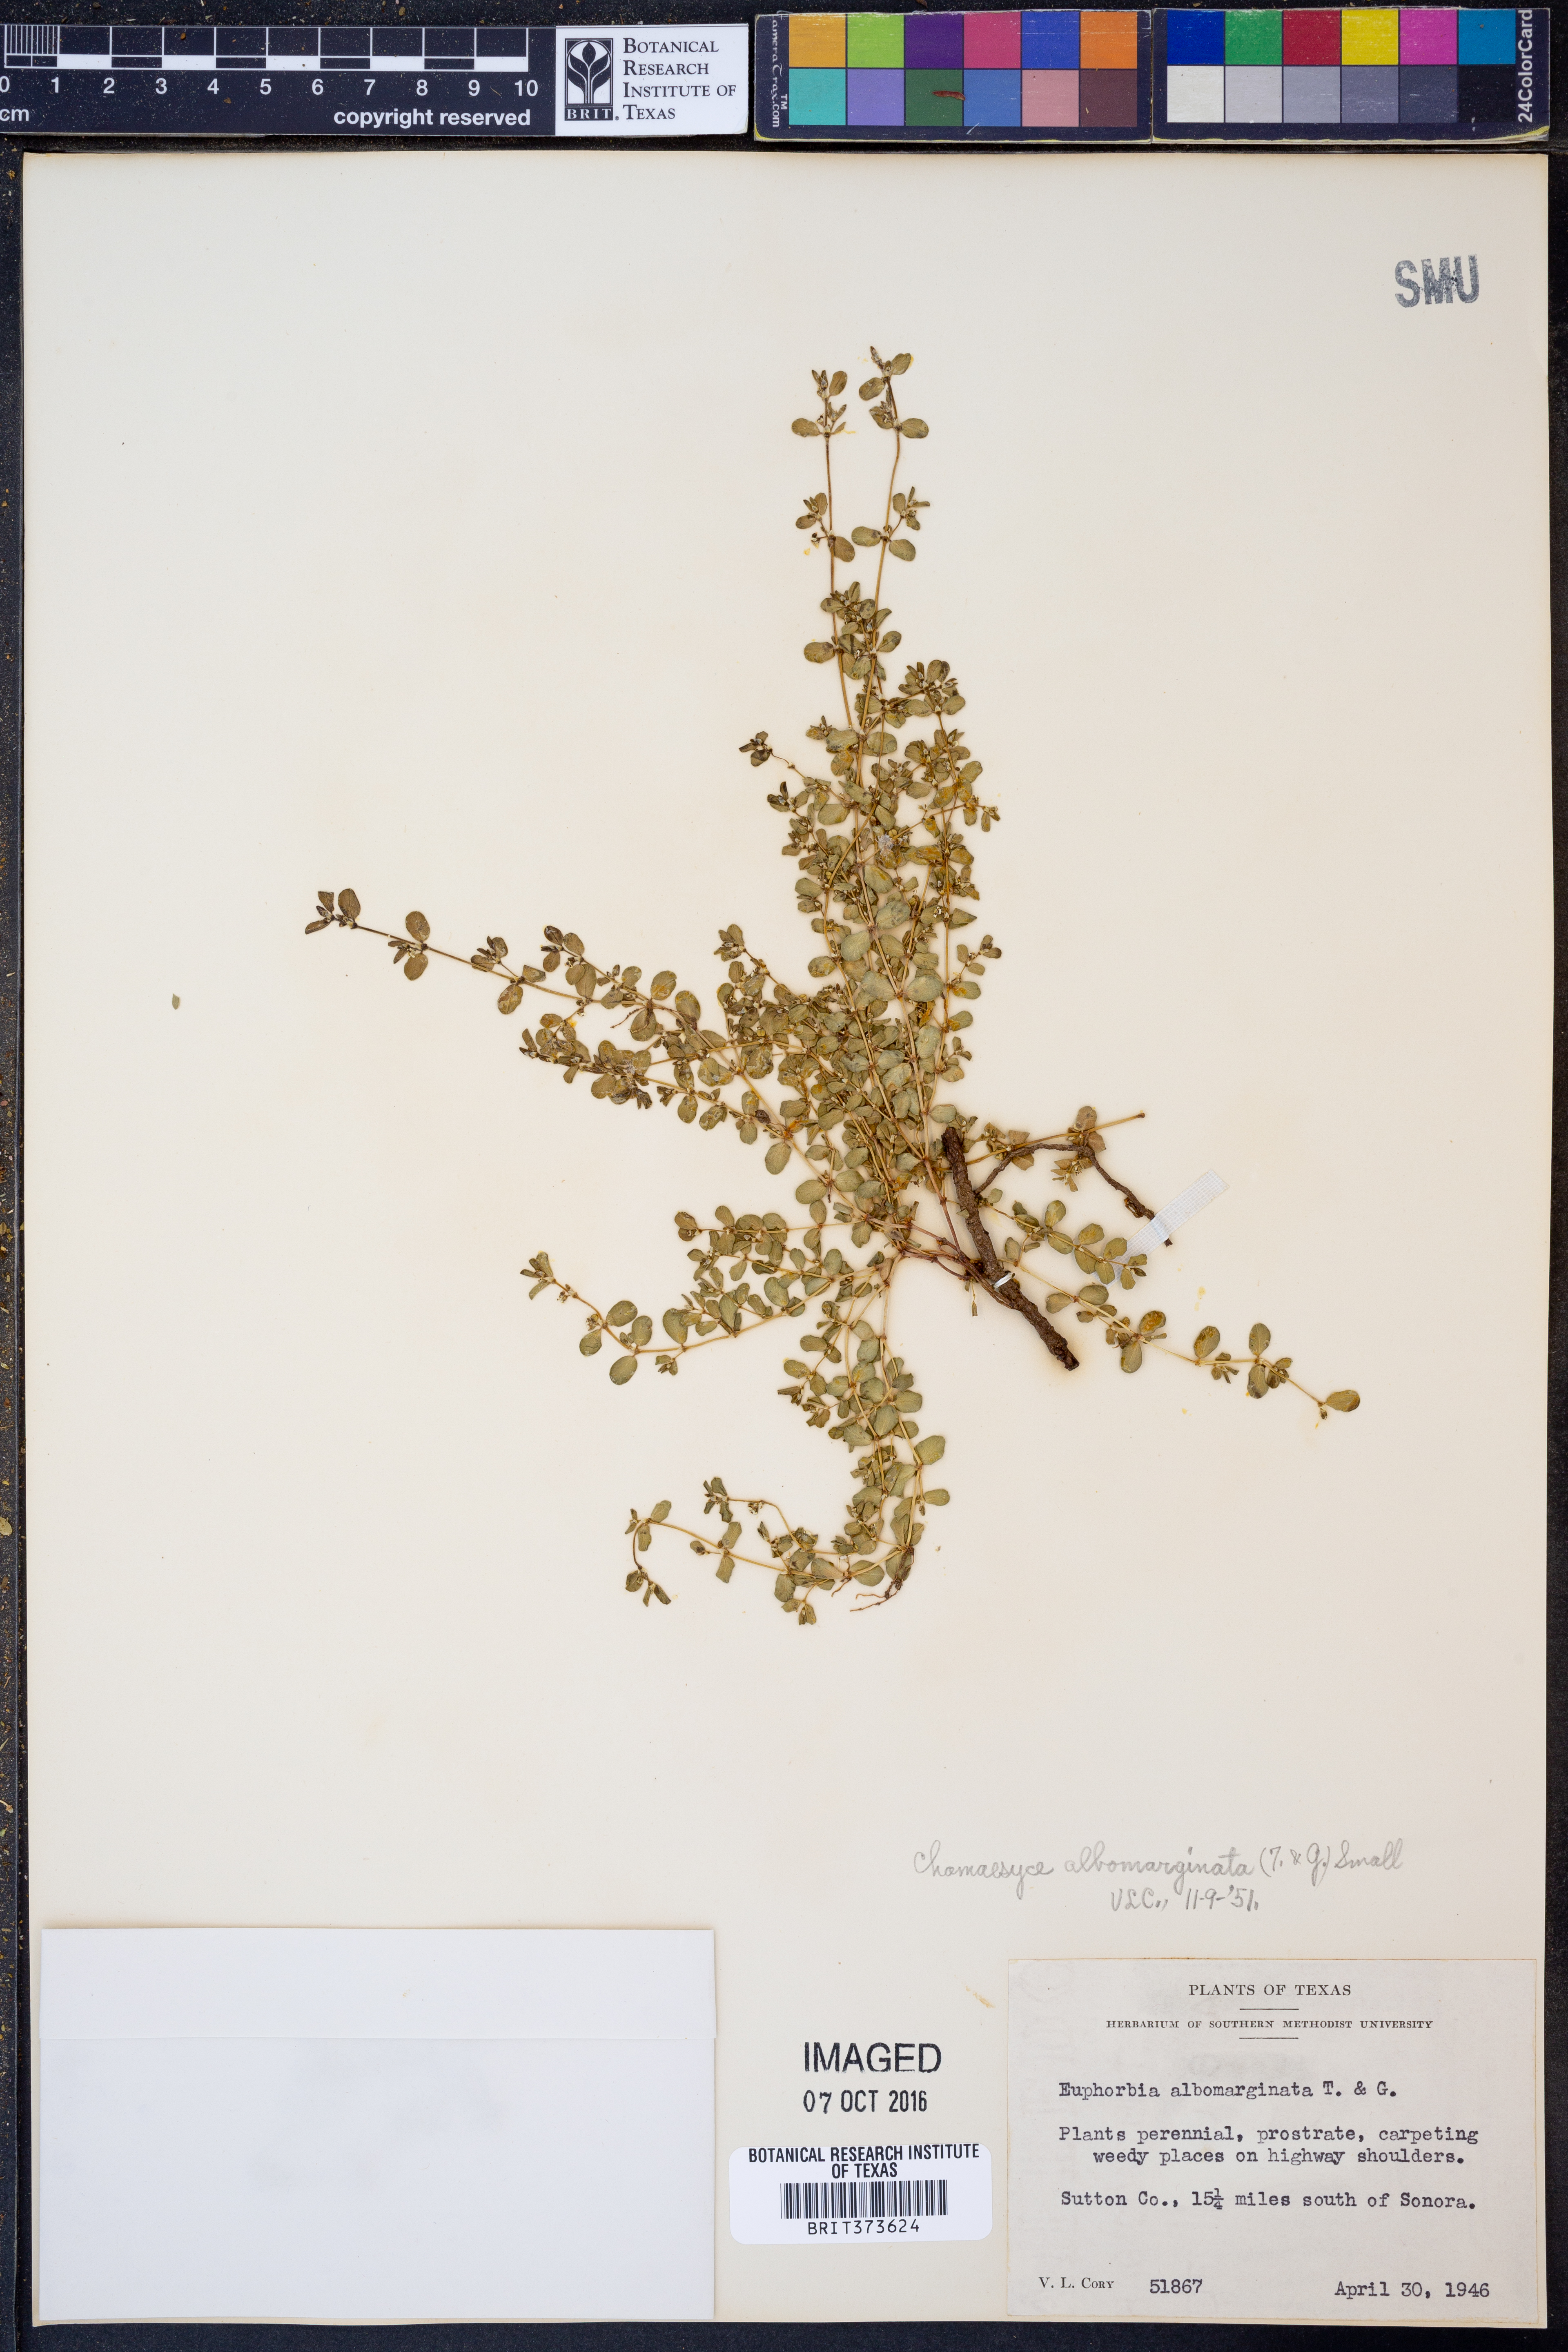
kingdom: Plantae
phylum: Tracheophyta
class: Magnoliopsida
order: Malpighiales
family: Euphorbiaceae
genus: Euphorbia
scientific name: Euphorbia albomarginata
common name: Whitemargin sandmat
